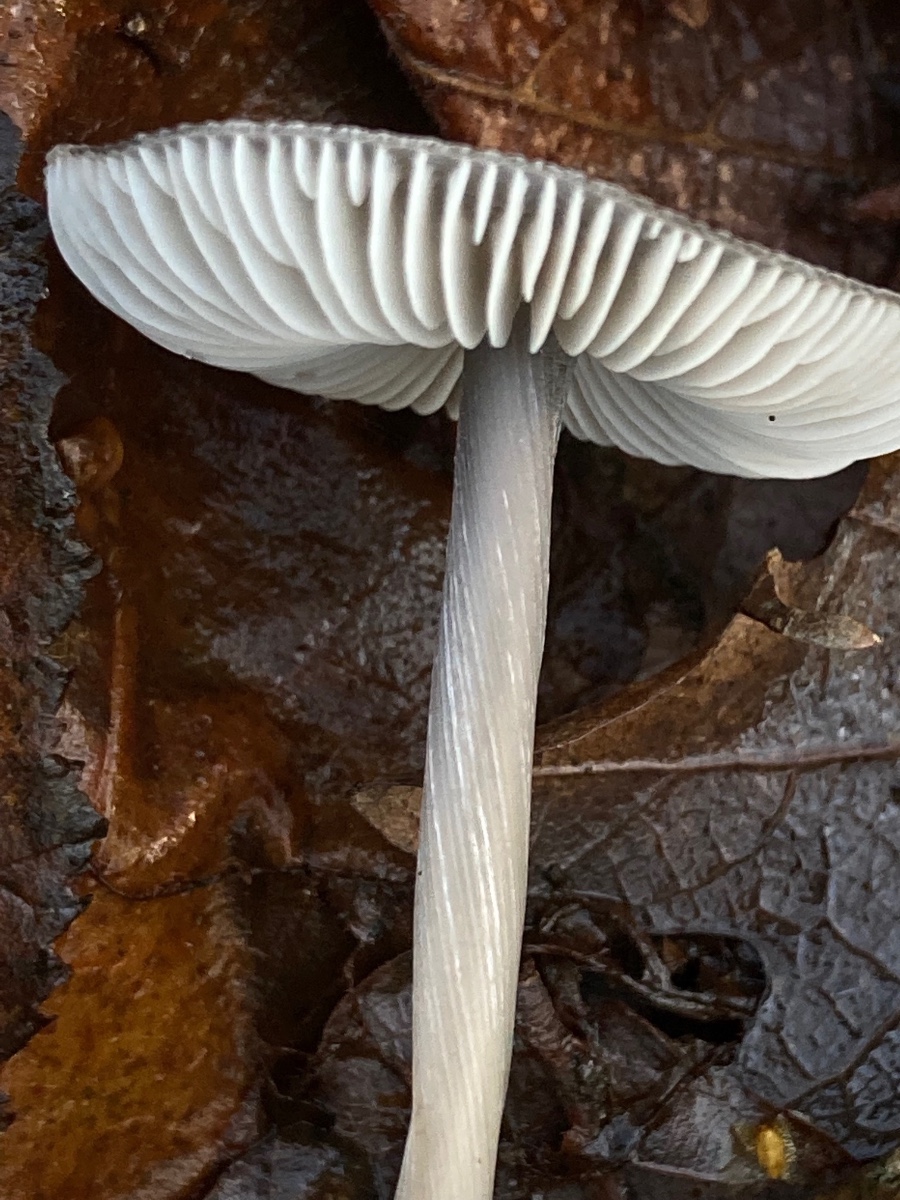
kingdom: Fungi
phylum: Basidiomycota
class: Agaricomycetes
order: Agaricales
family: Mycenaceae
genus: Mycena
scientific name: Mycena polygramma
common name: mangestribet huesvamp
